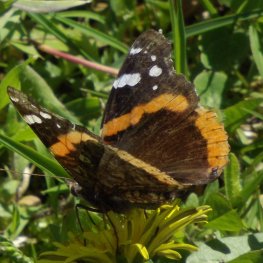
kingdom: Animalia
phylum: Arthropoda
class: Insecta
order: Lepidoptera
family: Nymphalidae
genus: Vanessa
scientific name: Vanessa atalanta
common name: Red Admiral
